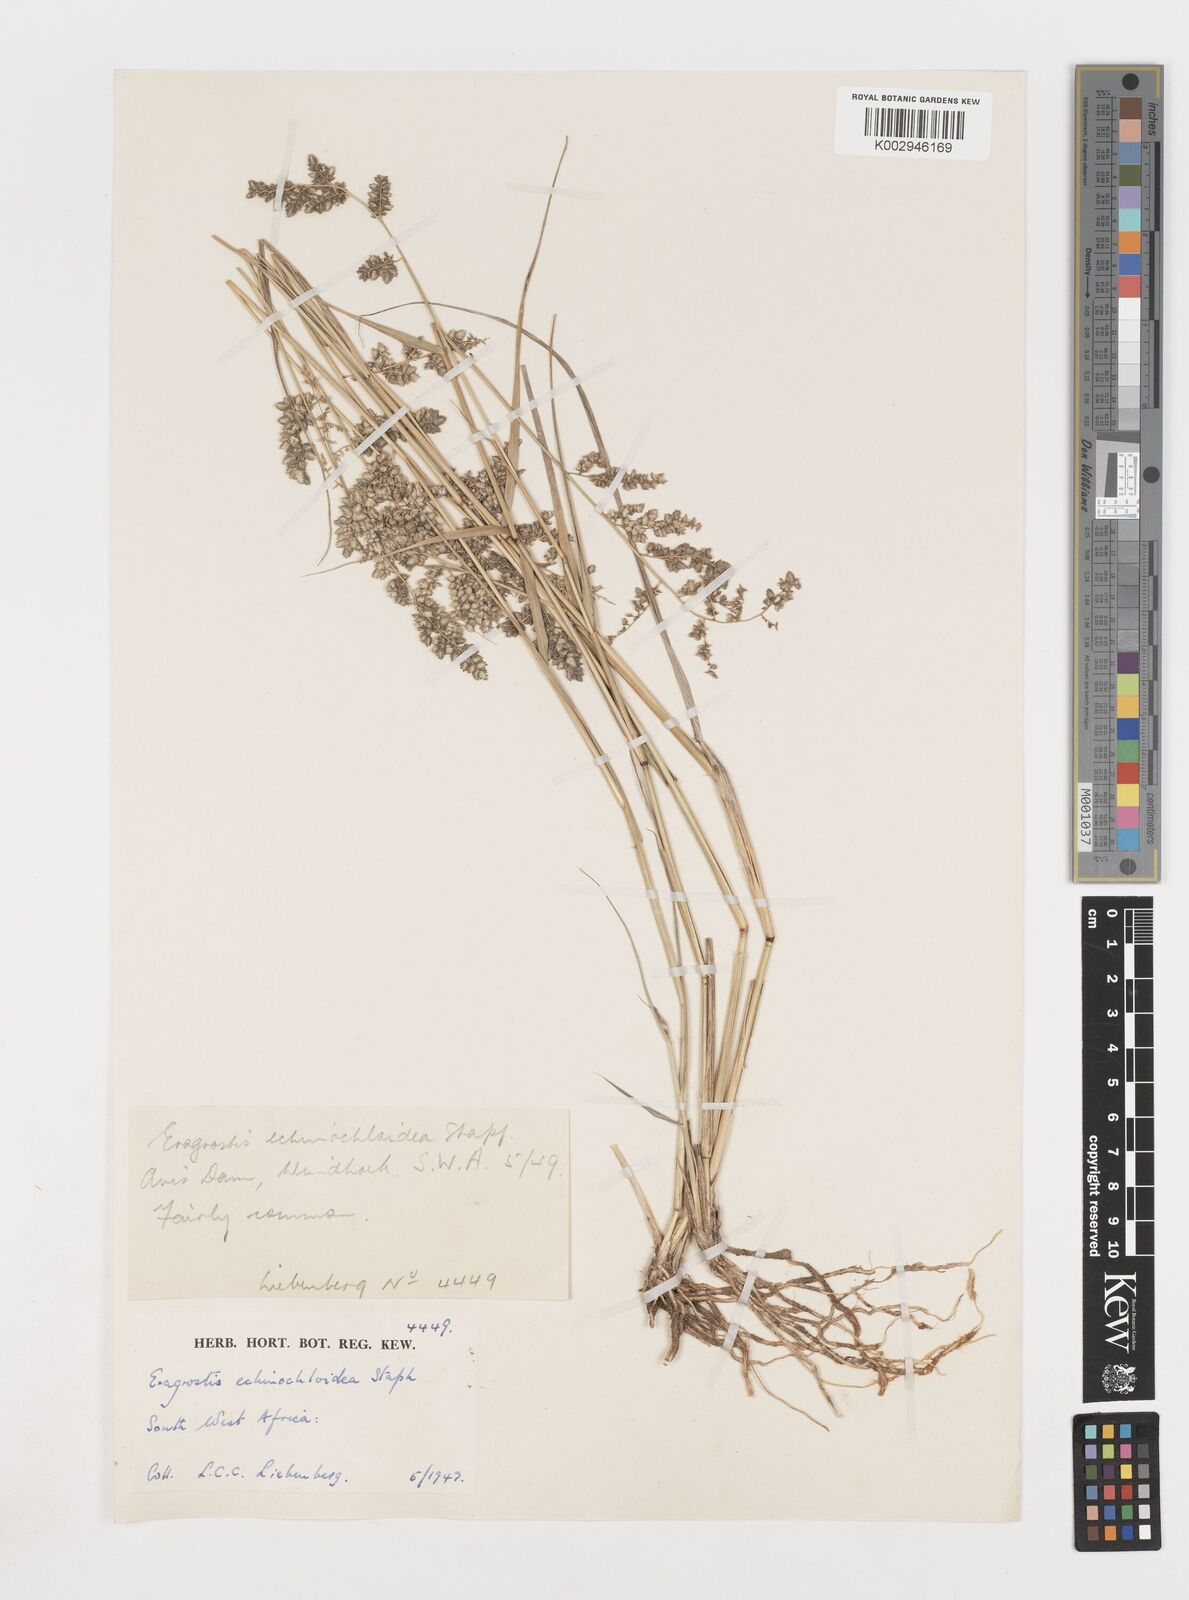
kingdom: Plantae
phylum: Tracheophyta
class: Liliopsida
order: Poales
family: Poaceae
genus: Eragrostis
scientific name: Eragrostis echinochloidea
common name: African lovegrass
